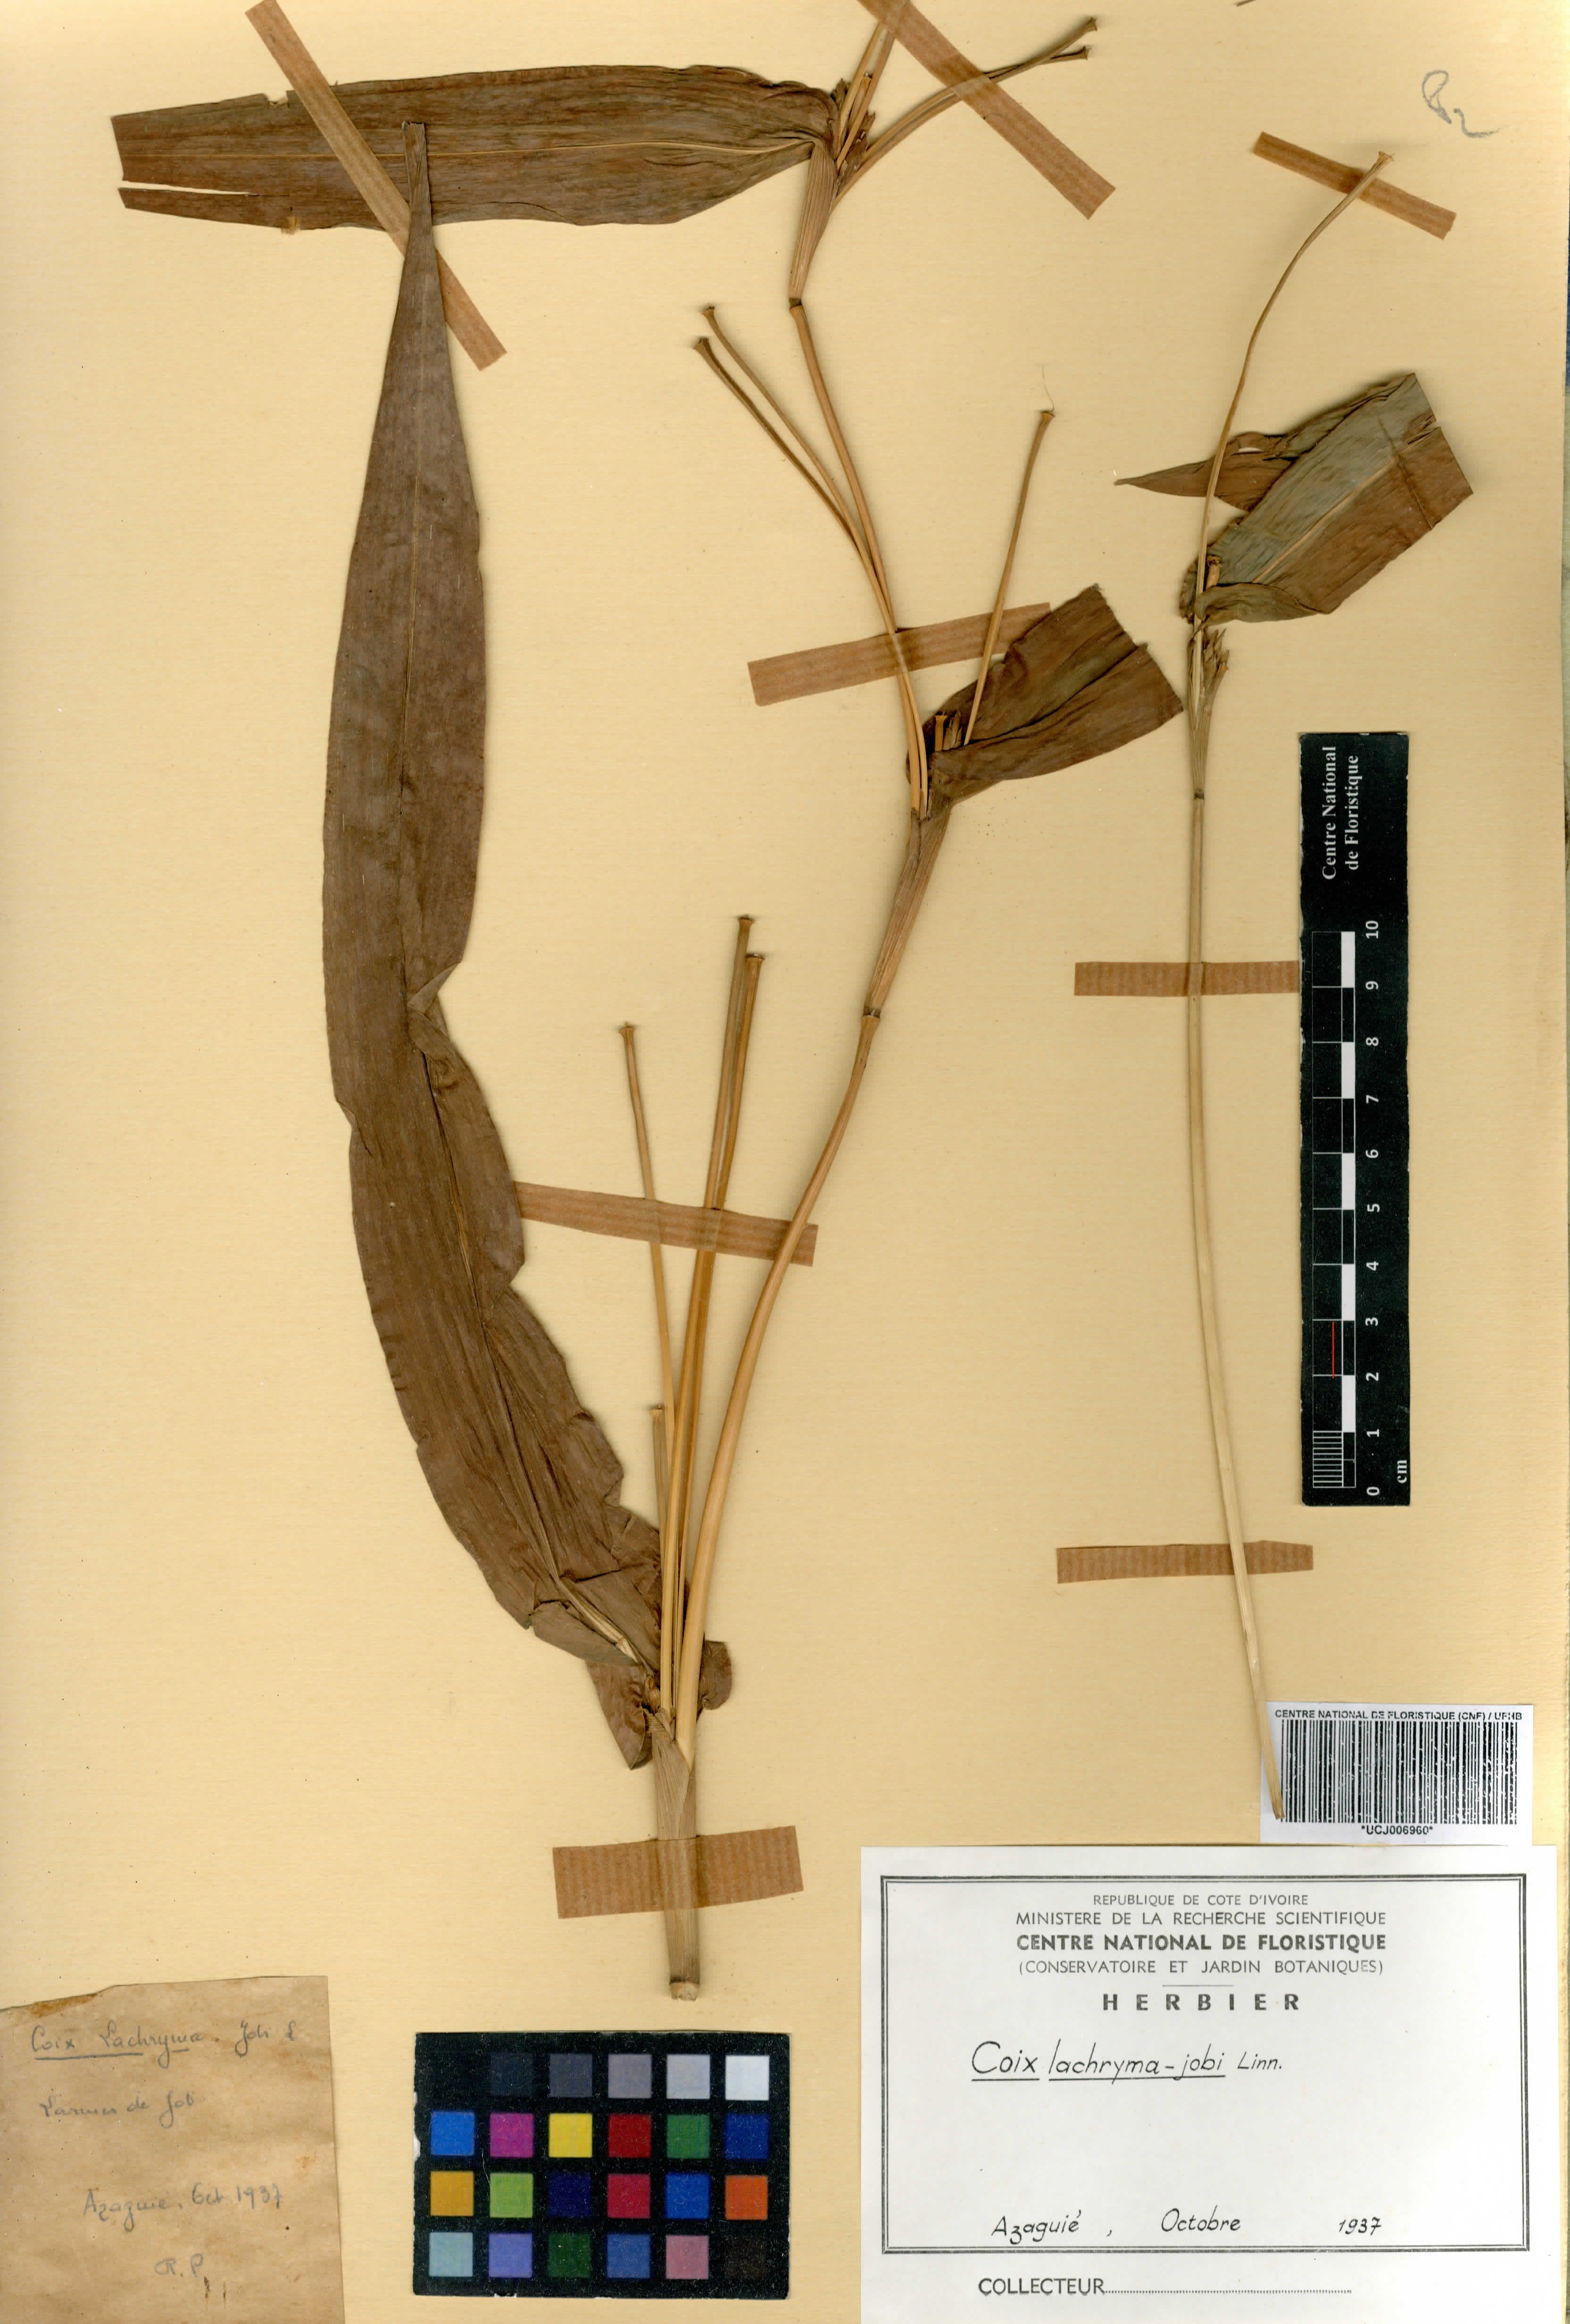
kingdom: Plantae
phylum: Tracheophyta
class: Liliopsida
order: Poales
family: Poaceae
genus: Coix
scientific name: Coix lacryma-jobi
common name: Larmes de Job
